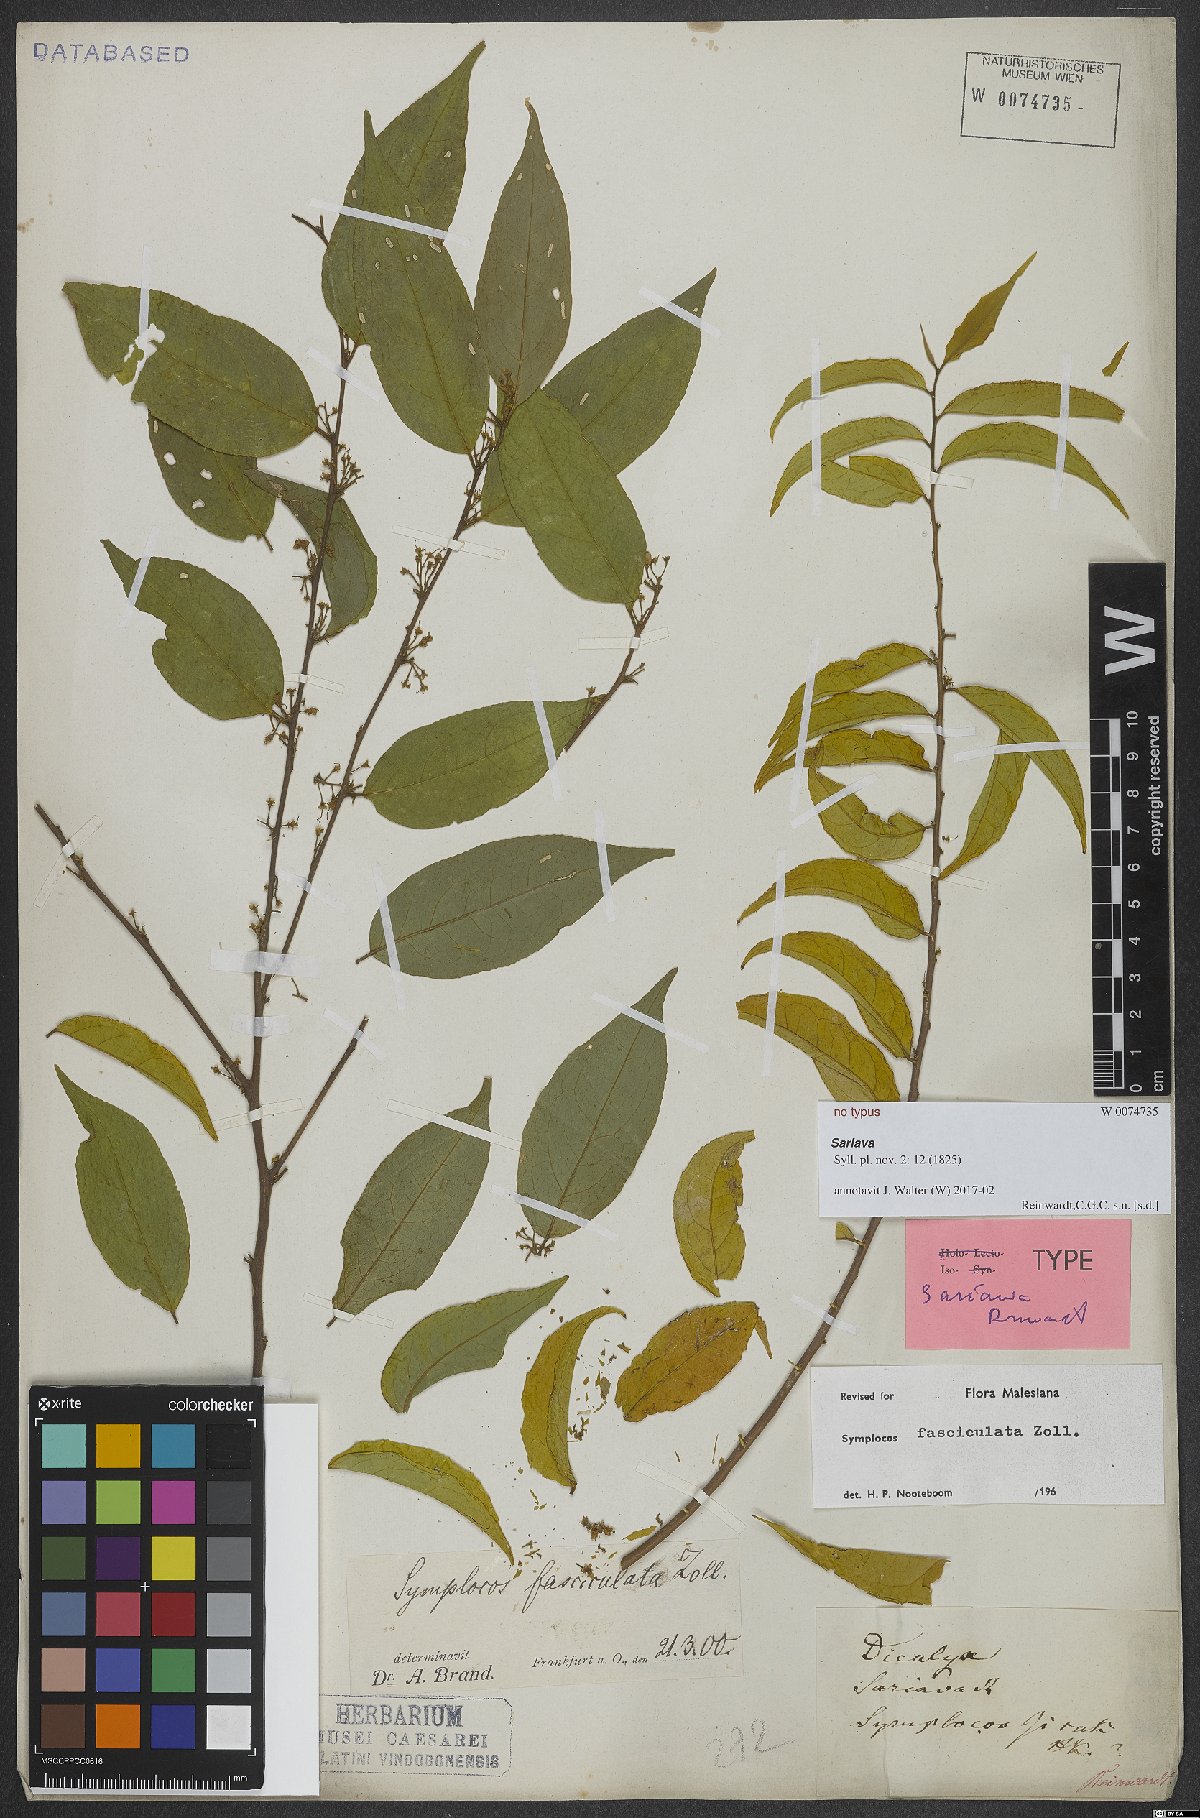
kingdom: Plantae
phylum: Tracheophyta
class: Magnoliopsida
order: Ericales
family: Symplocaceae
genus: Symplocos
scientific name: Symplocos fasciculata
